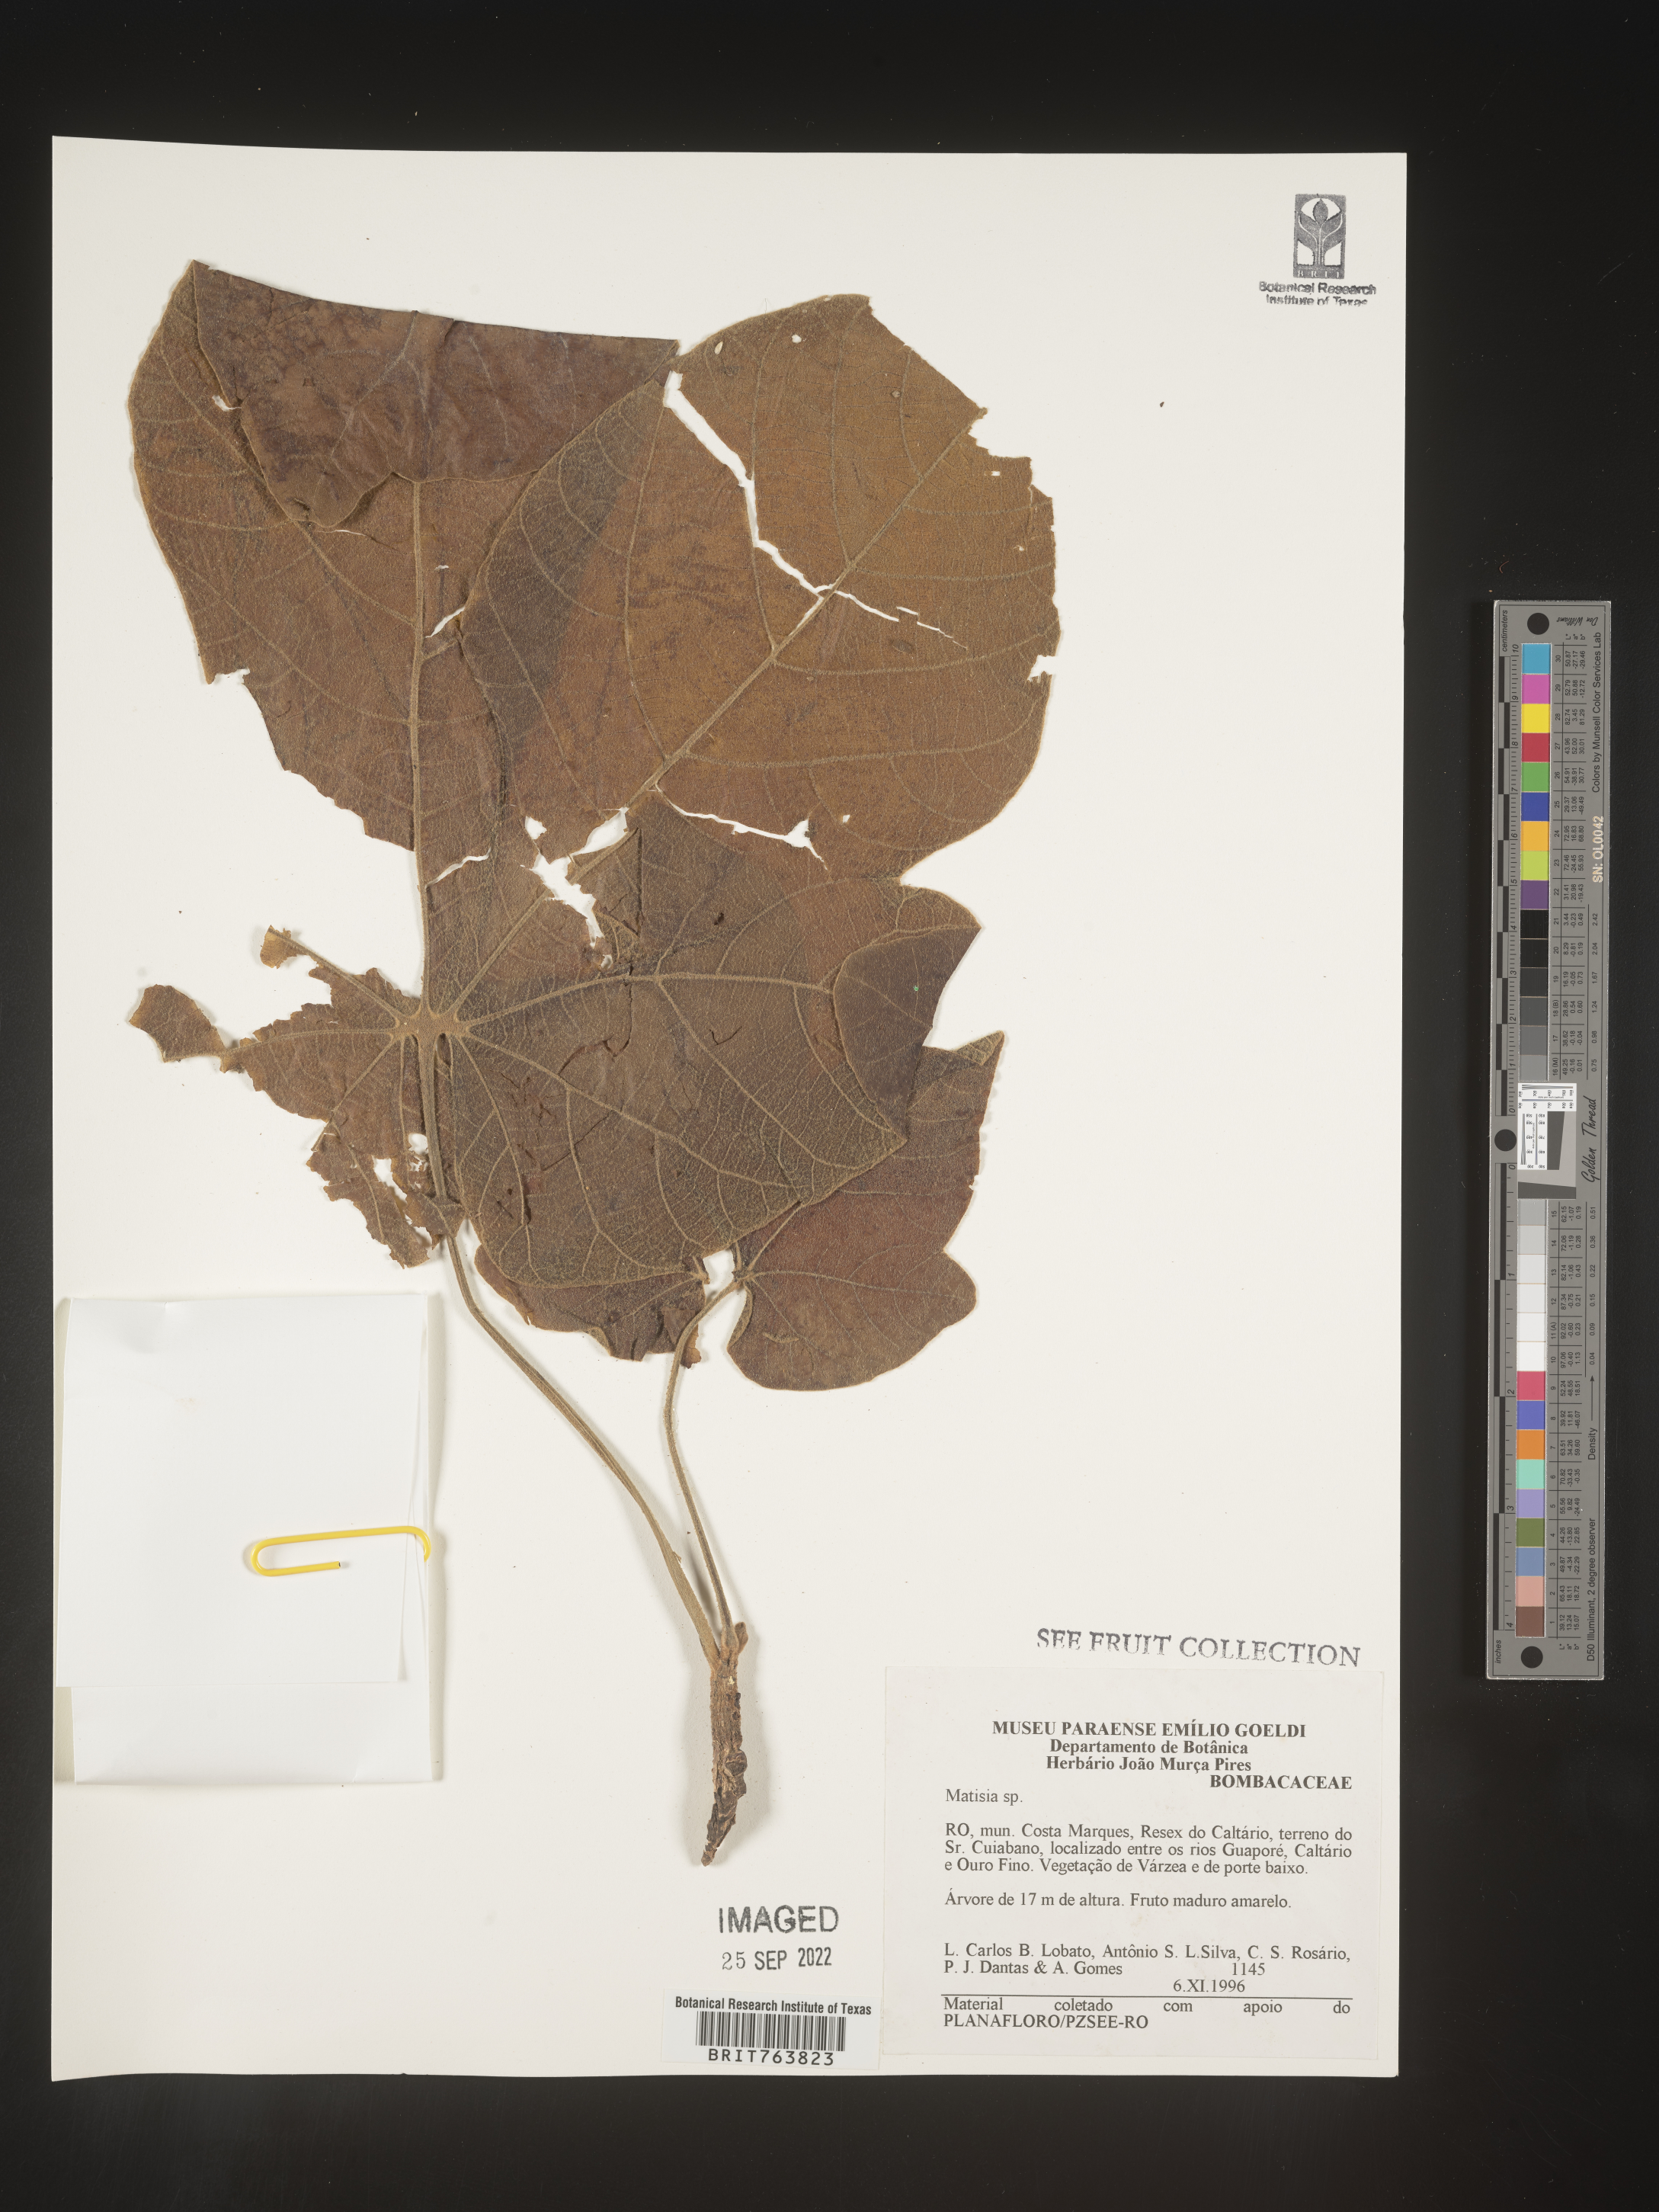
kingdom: Plantae
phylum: Tracheophyta
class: Magnoliopsida
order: Malvales
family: Malvaceae
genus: Matisia
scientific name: Matisia
